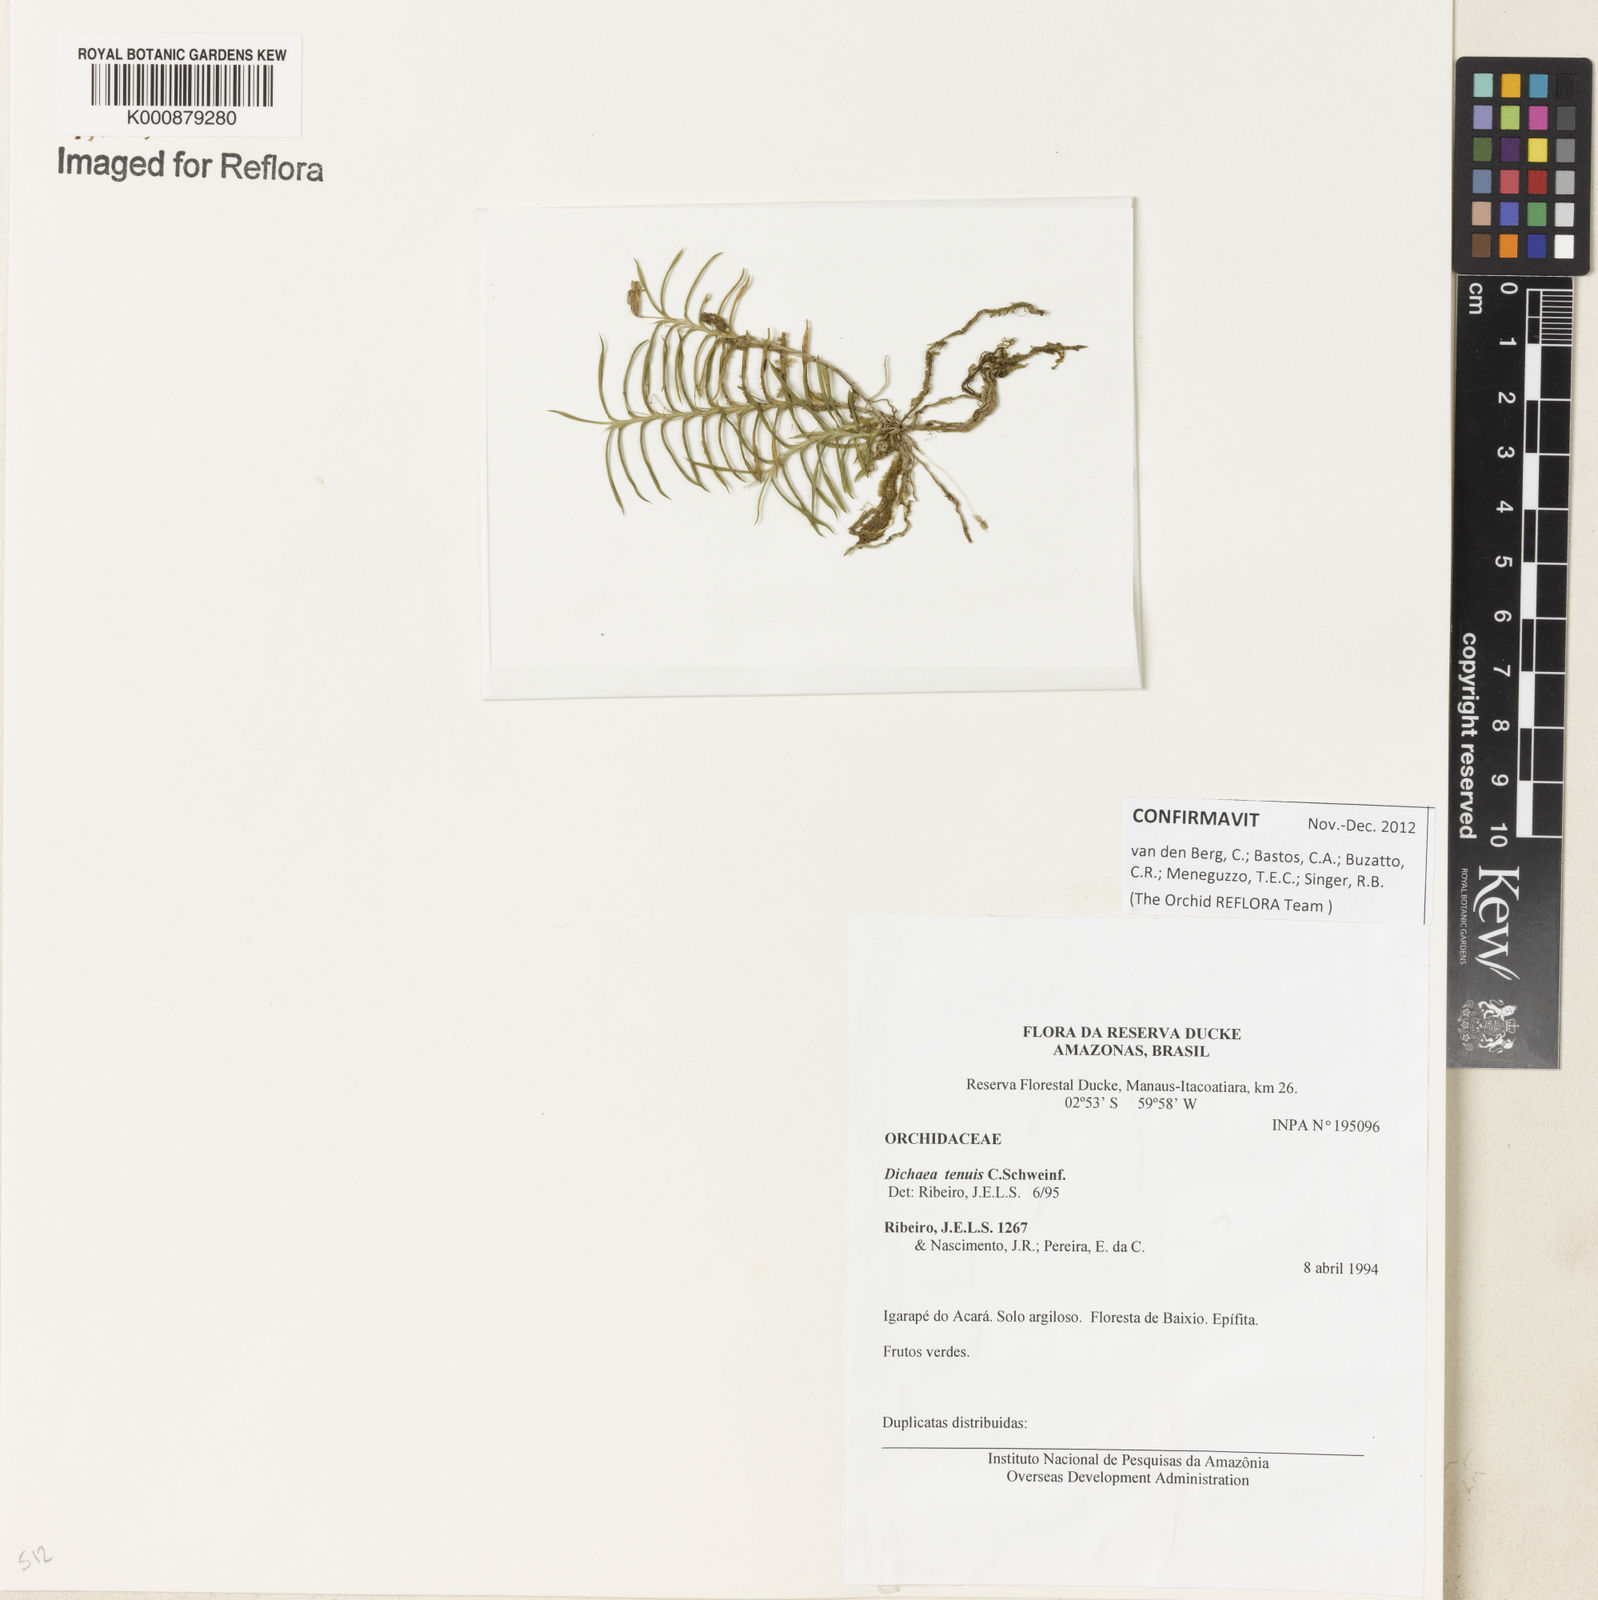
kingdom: Plantae
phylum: Tracheophyta
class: Liliopsida
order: Asparagales
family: Orchidaceae
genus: Dichaea
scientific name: Dichaea tenuis
